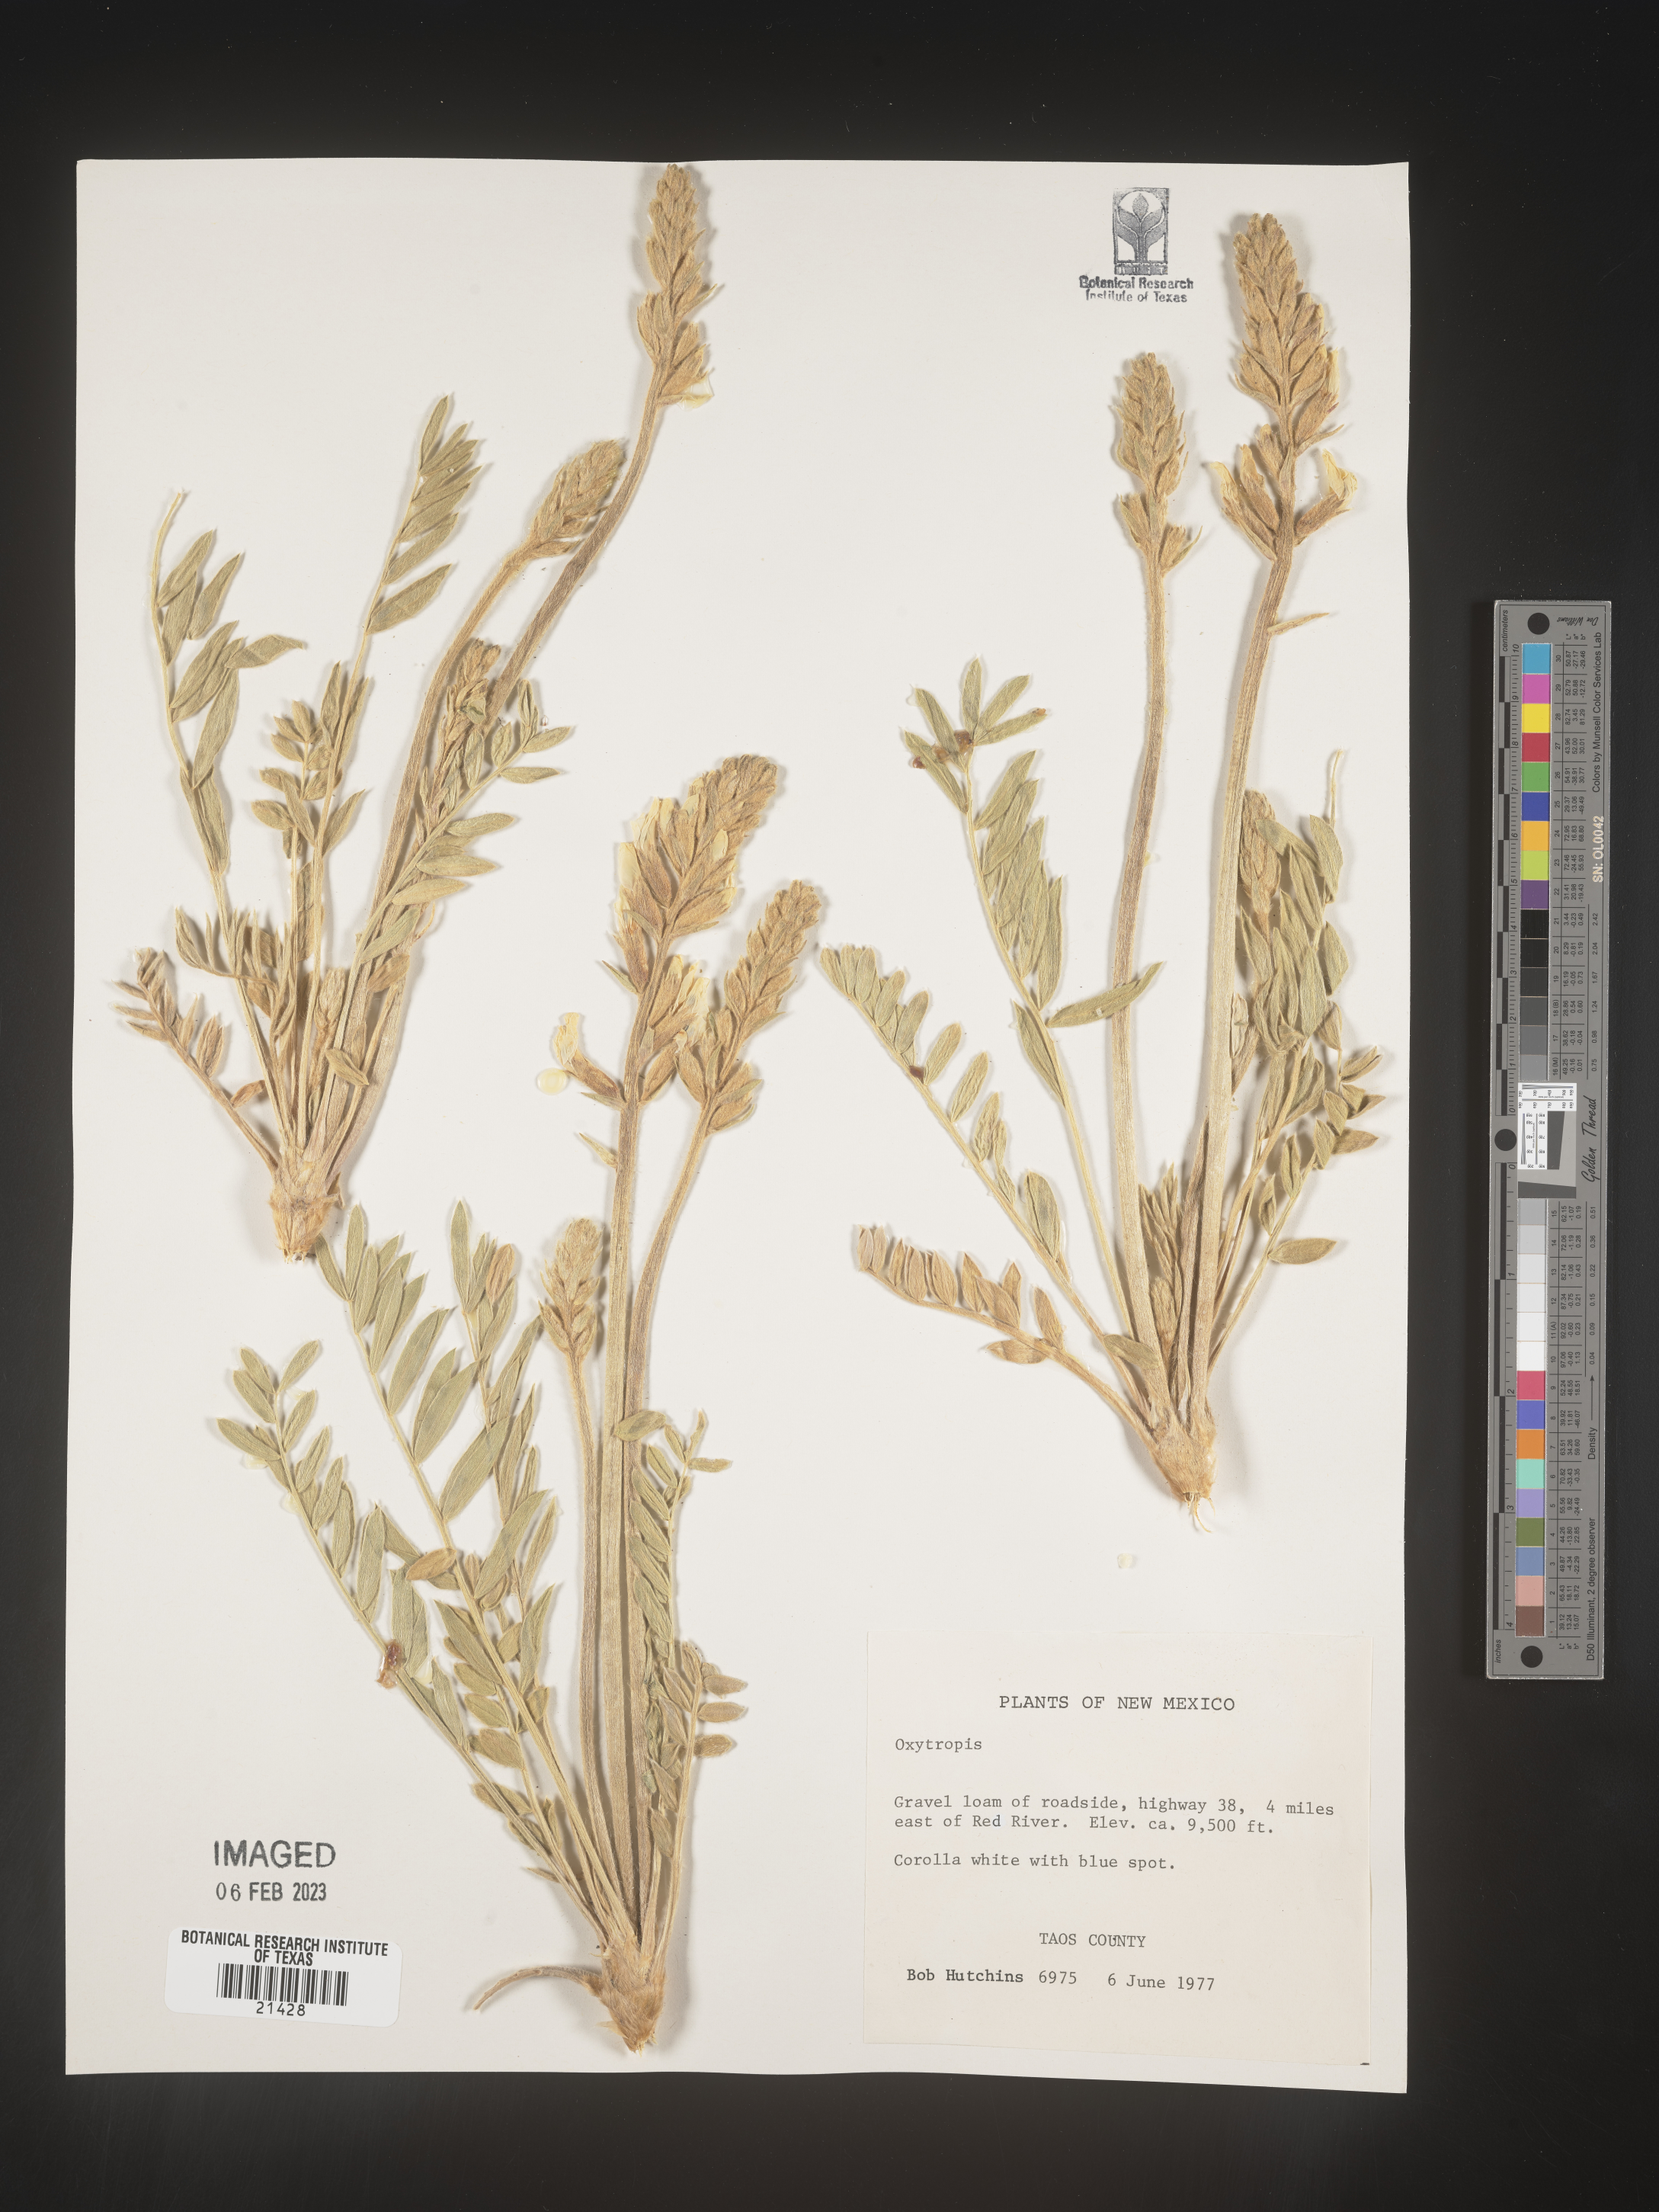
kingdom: Plantae
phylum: Tracheophyta
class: Magnoliopsida
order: Fabales
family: Fabaceae
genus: Oxytropis
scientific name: Oxytropis
